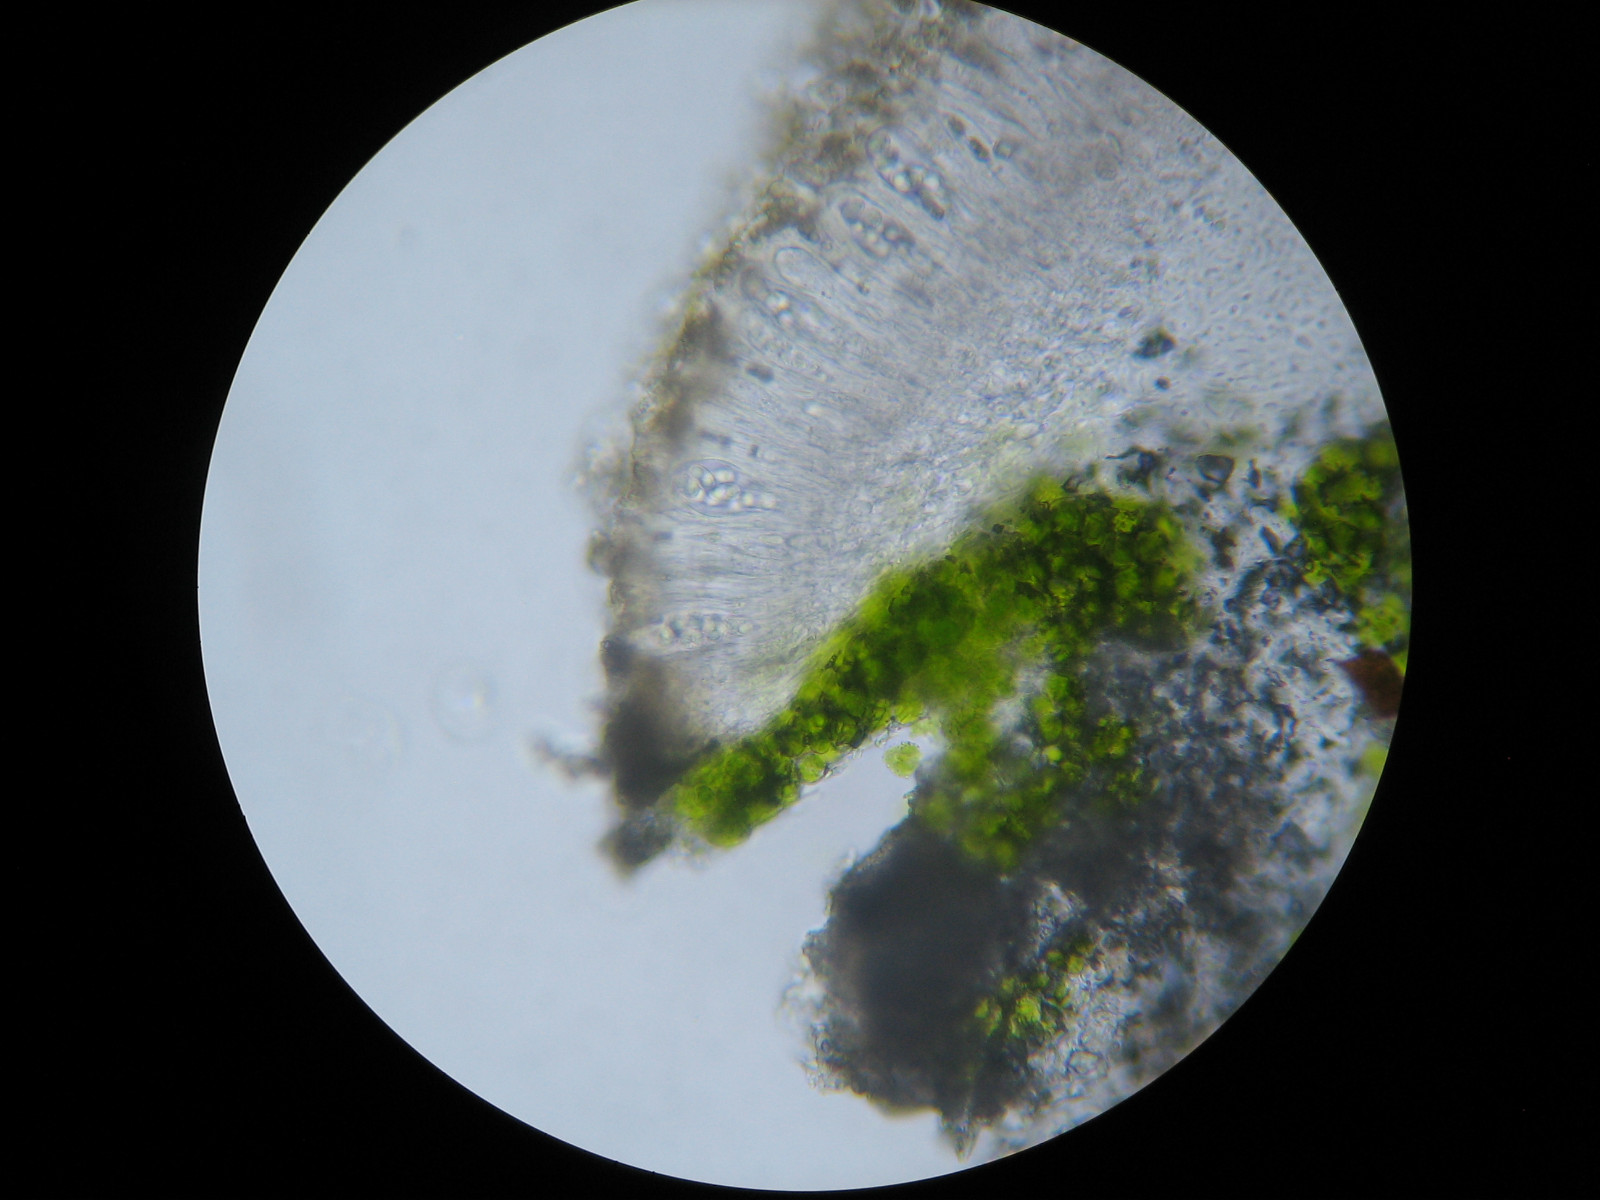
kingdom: Fungi
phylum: Ascomycota
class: Lecanoromycetes
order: Lecanorales
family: Lecanoraceae
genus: Polyozosia
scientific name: Polyozosia semipallida
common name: vinetorin-kantskivelav
